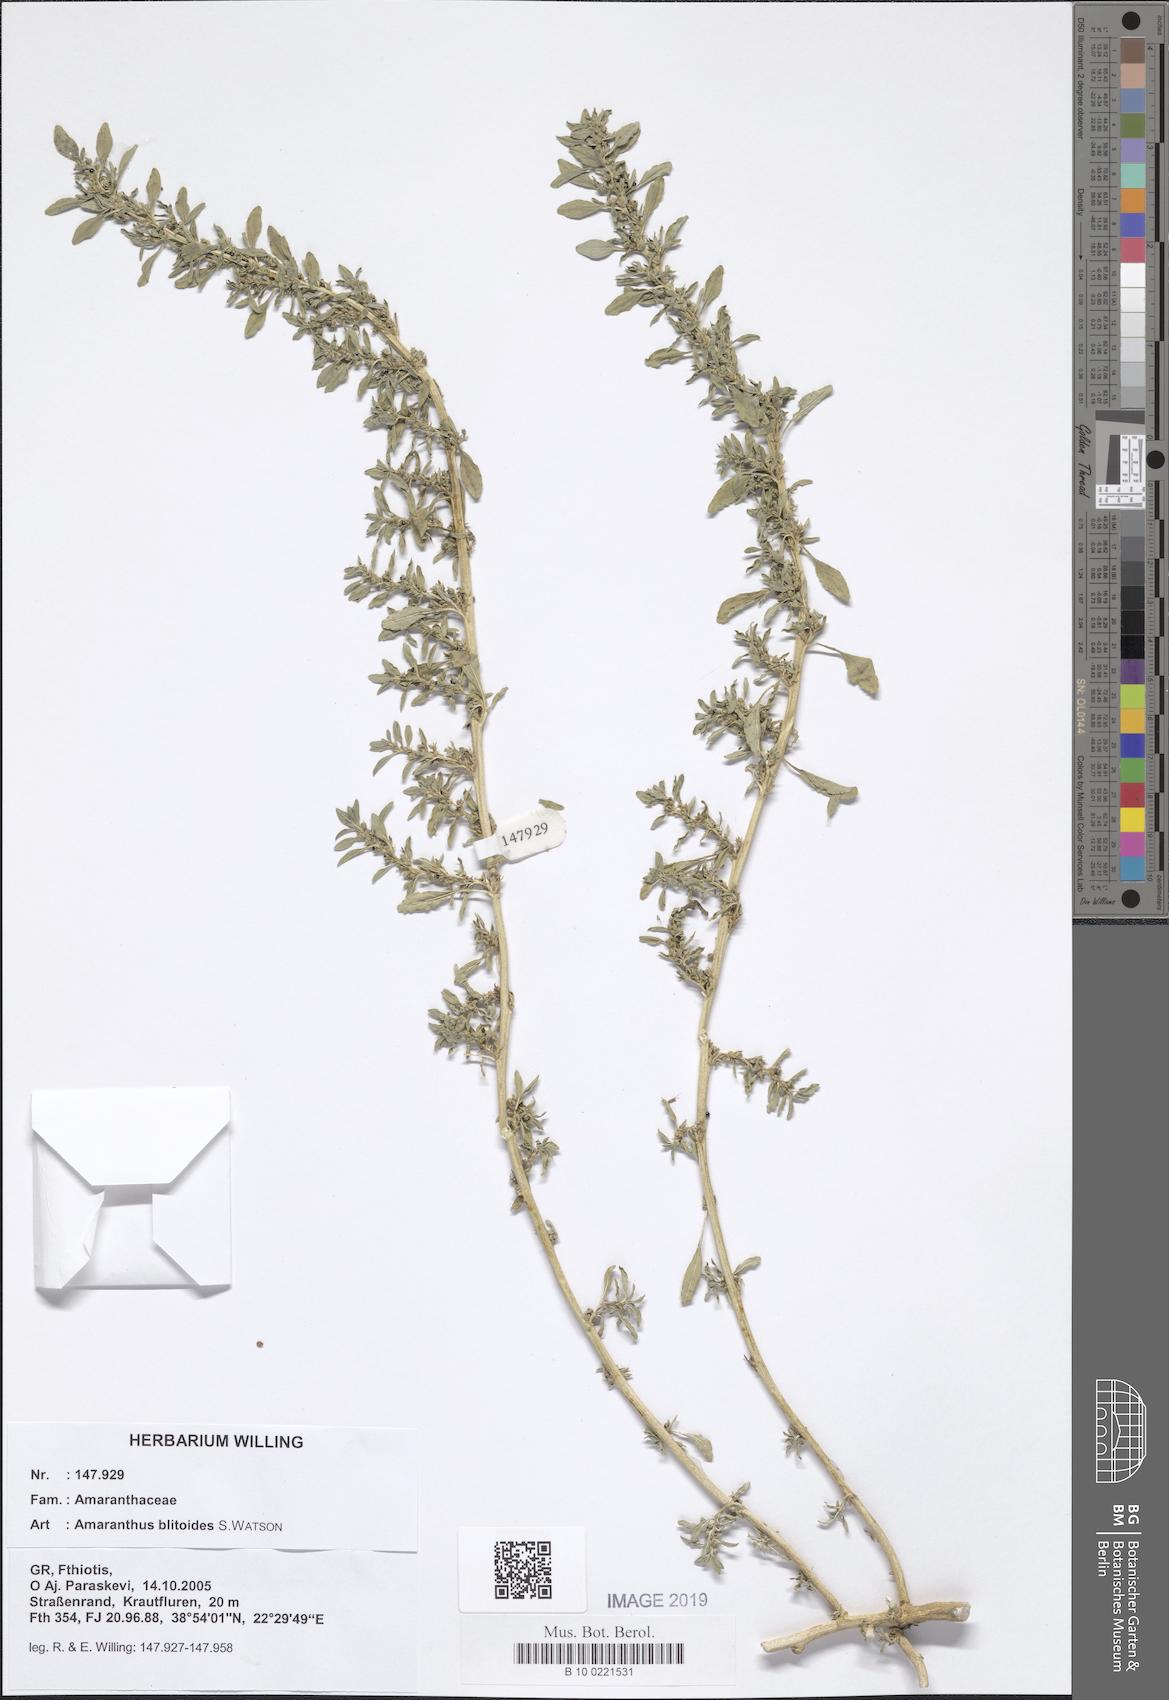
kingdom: Plantae
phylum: Tracheophyta
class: Magnoliopsida
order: Caryophyllales
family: Amaranthaceae
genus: Amaranthus
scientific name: Amaranthus blitoides
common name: Prostrate pigweed
